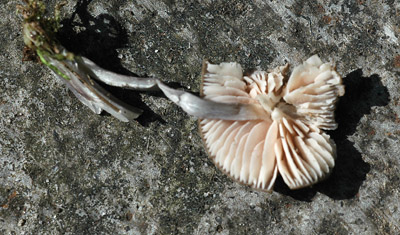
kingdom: Fungi
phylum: Basidiomycota
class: Agaricomycetes
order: Agaricales
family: Entolomataceae
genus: Entoloma
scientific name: Entoloma griseocyaneum
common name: gråblå rødblad
